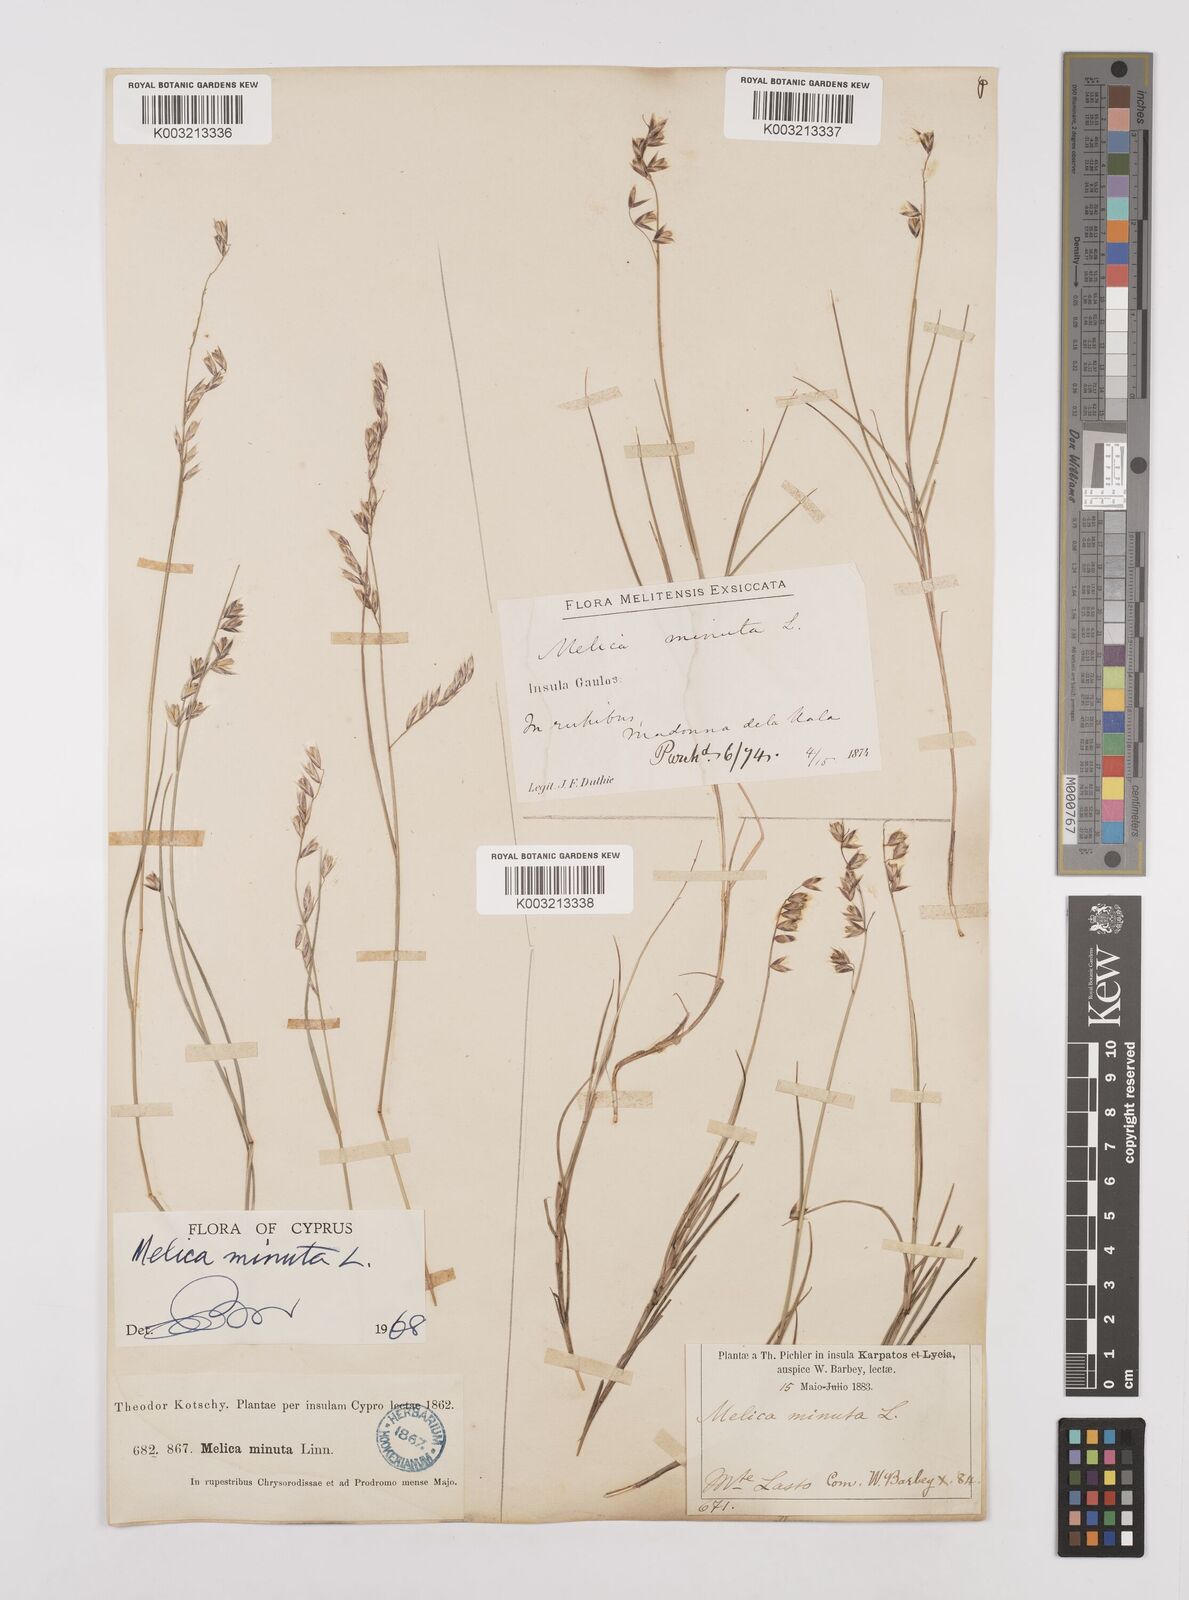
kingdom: Plantae
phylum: Tracheophyta
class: Liliopsida
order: Poales
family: Poaceae
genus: Melica
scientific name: Melica minuta
